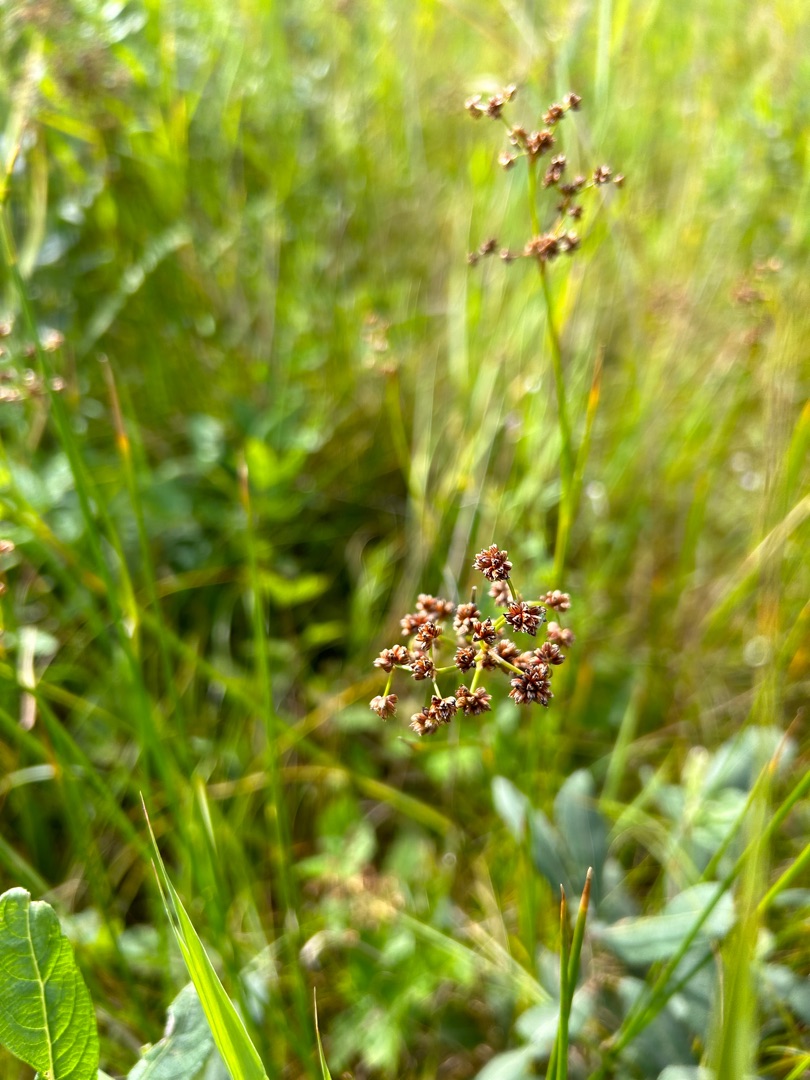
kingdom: Plantae
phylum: Tracheophyta
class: Liliopsida
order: Poales
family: Juncaceae
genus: Juncus
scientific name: Juncus subnodulosus
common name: Butblomstret siv
